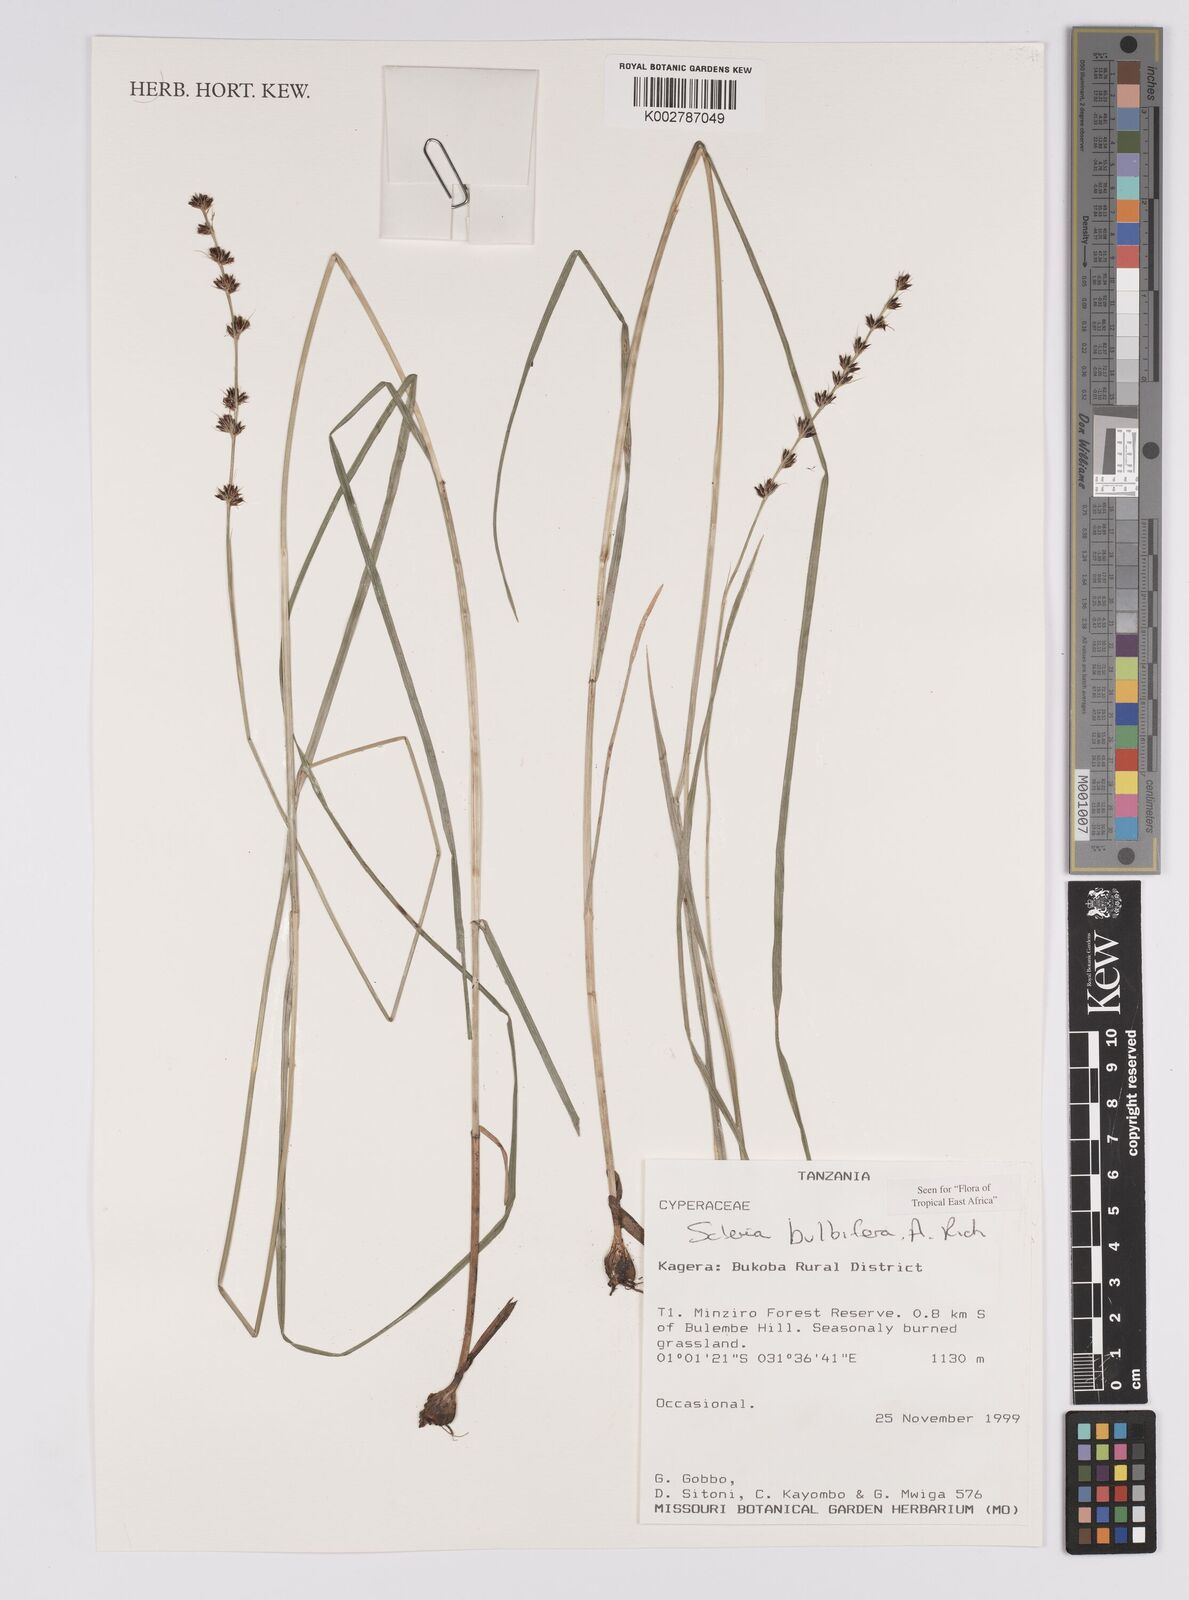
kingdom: Plantae
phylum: Tracheophyta
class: Liliopsida
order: Poales
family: Cyperaceae
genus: Scleria
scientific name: Scleria bulbifera
